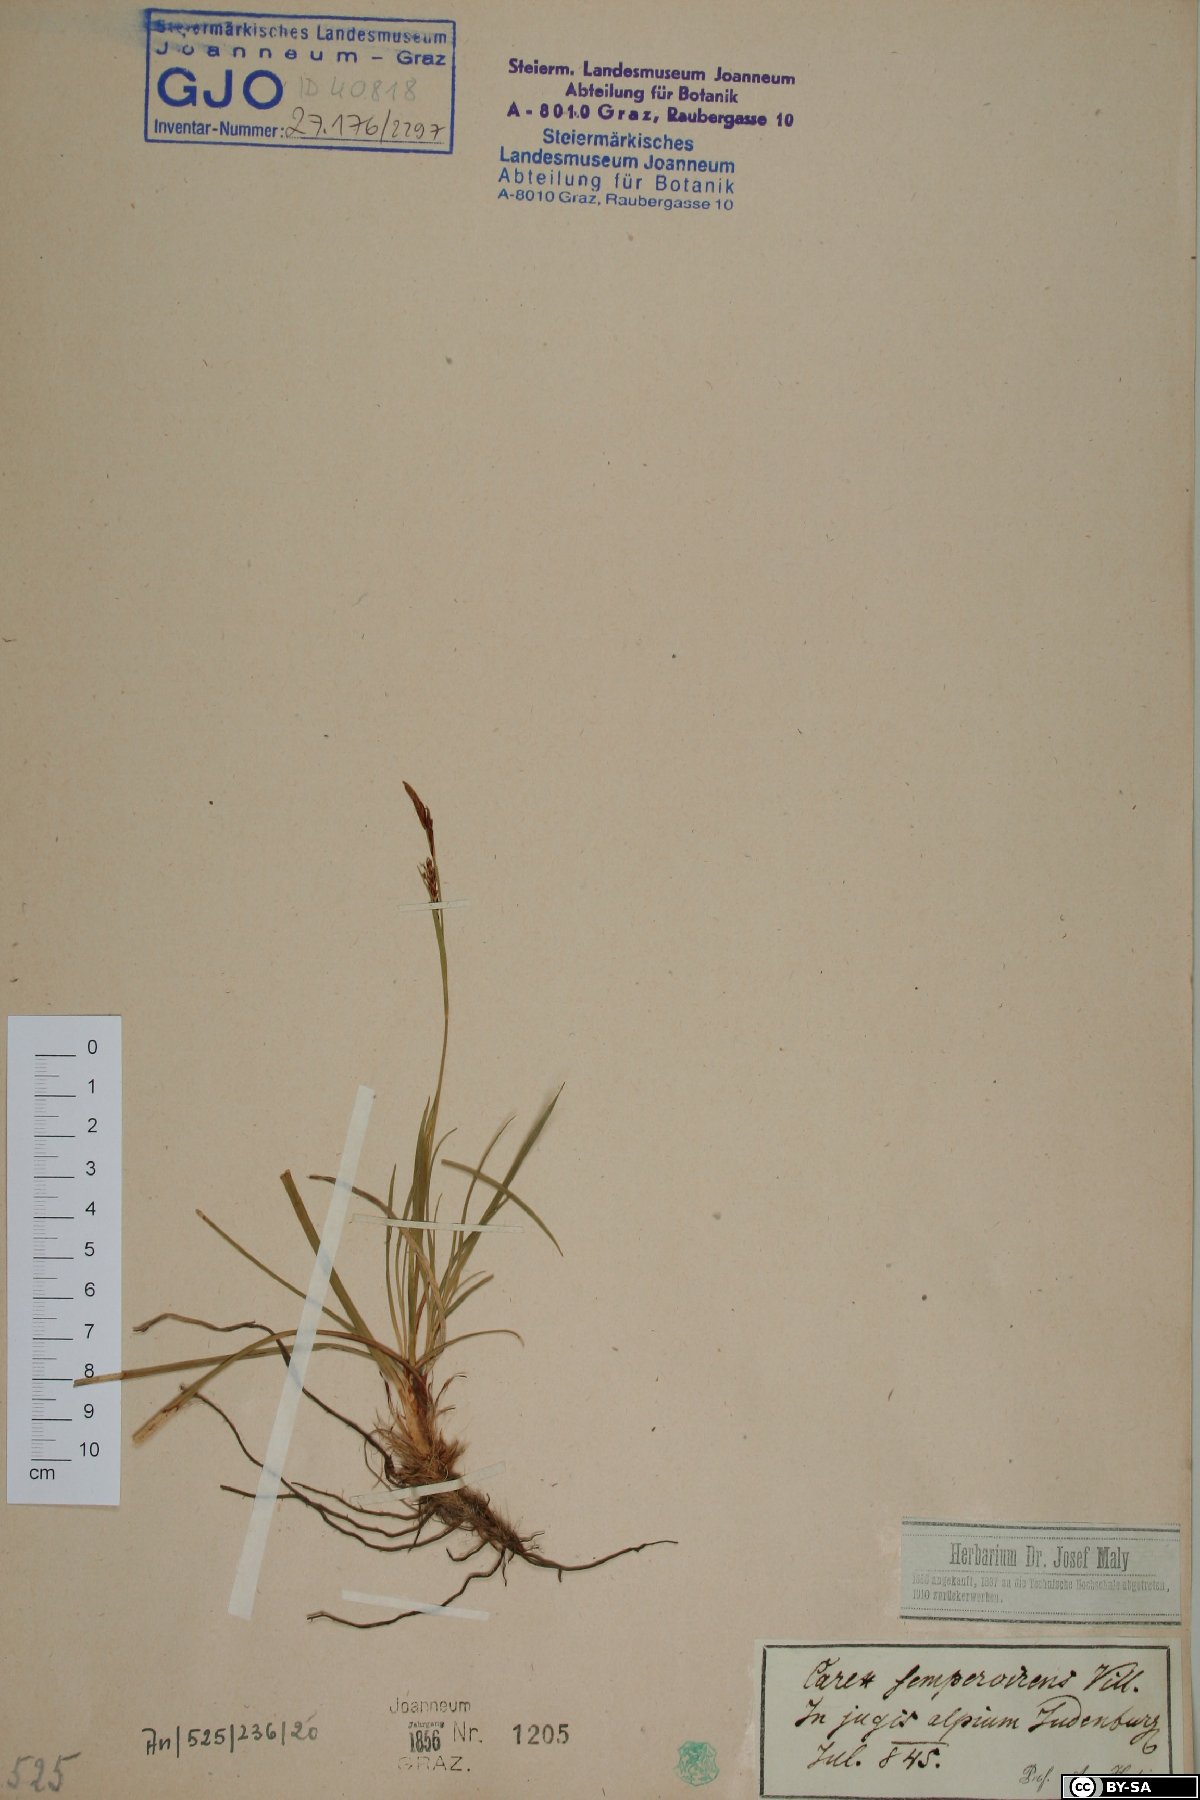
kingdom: Plantae
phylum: Tracheophyta
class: Liliopsida
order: Poales
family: Cyperaceae
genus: Carex
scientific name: Carex sempervirens
